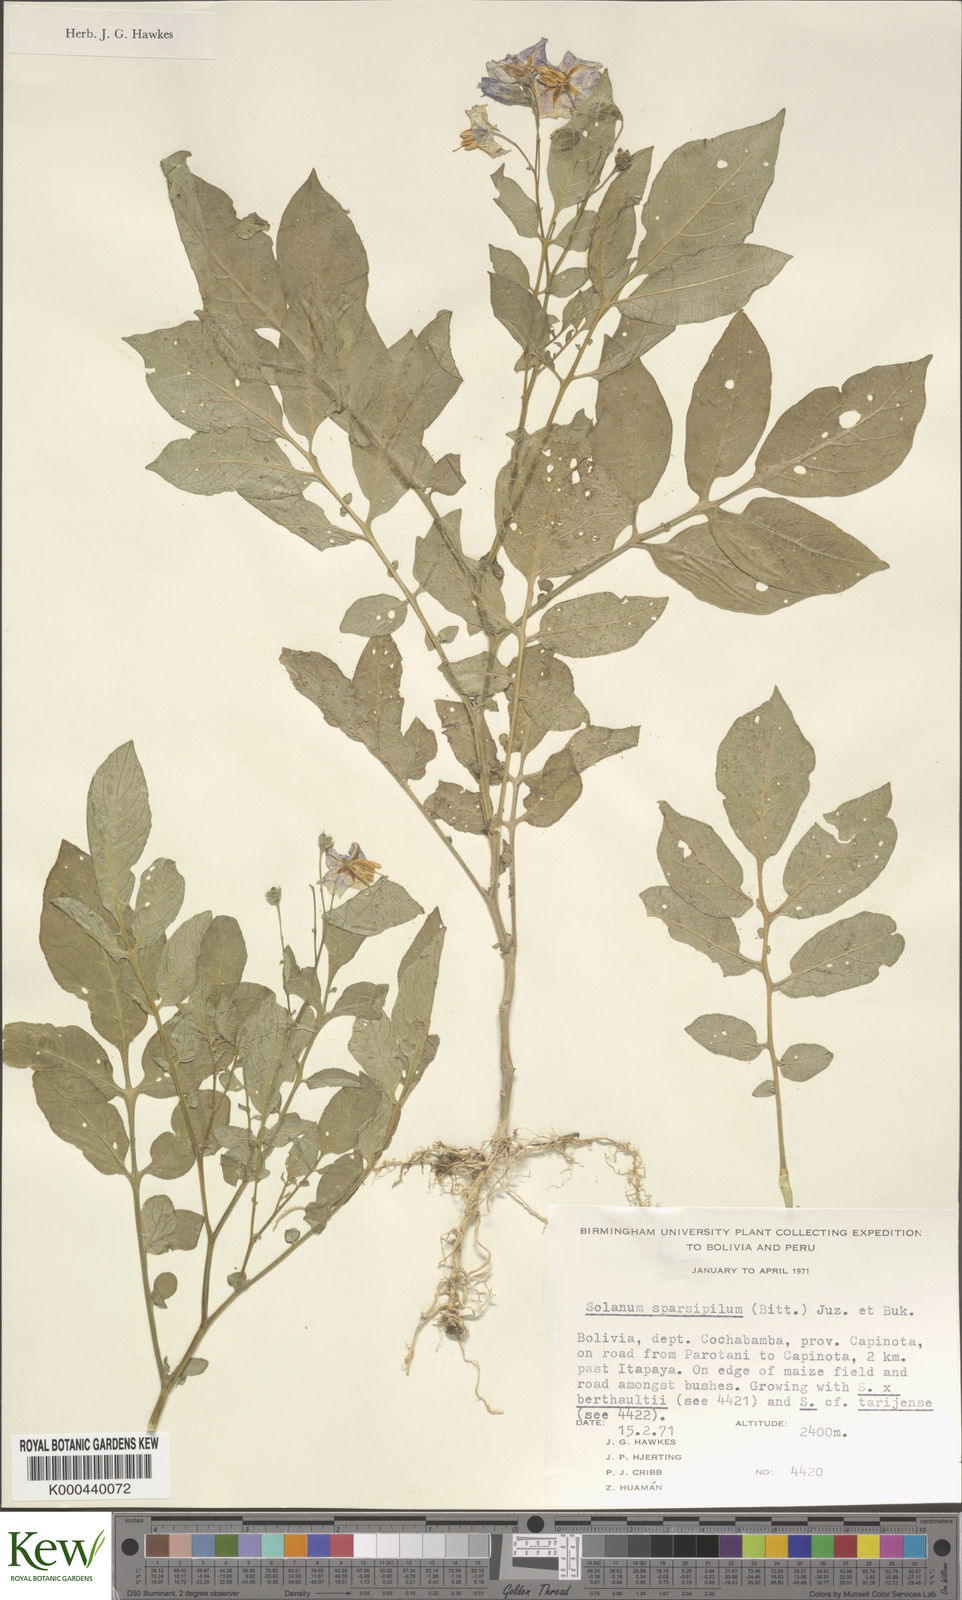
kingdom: Plantae
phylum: Tracheophyta
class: Magnoliopsida
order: Solanales
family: Solanaceae
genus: Solanum
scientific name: Solanum brevicaule
